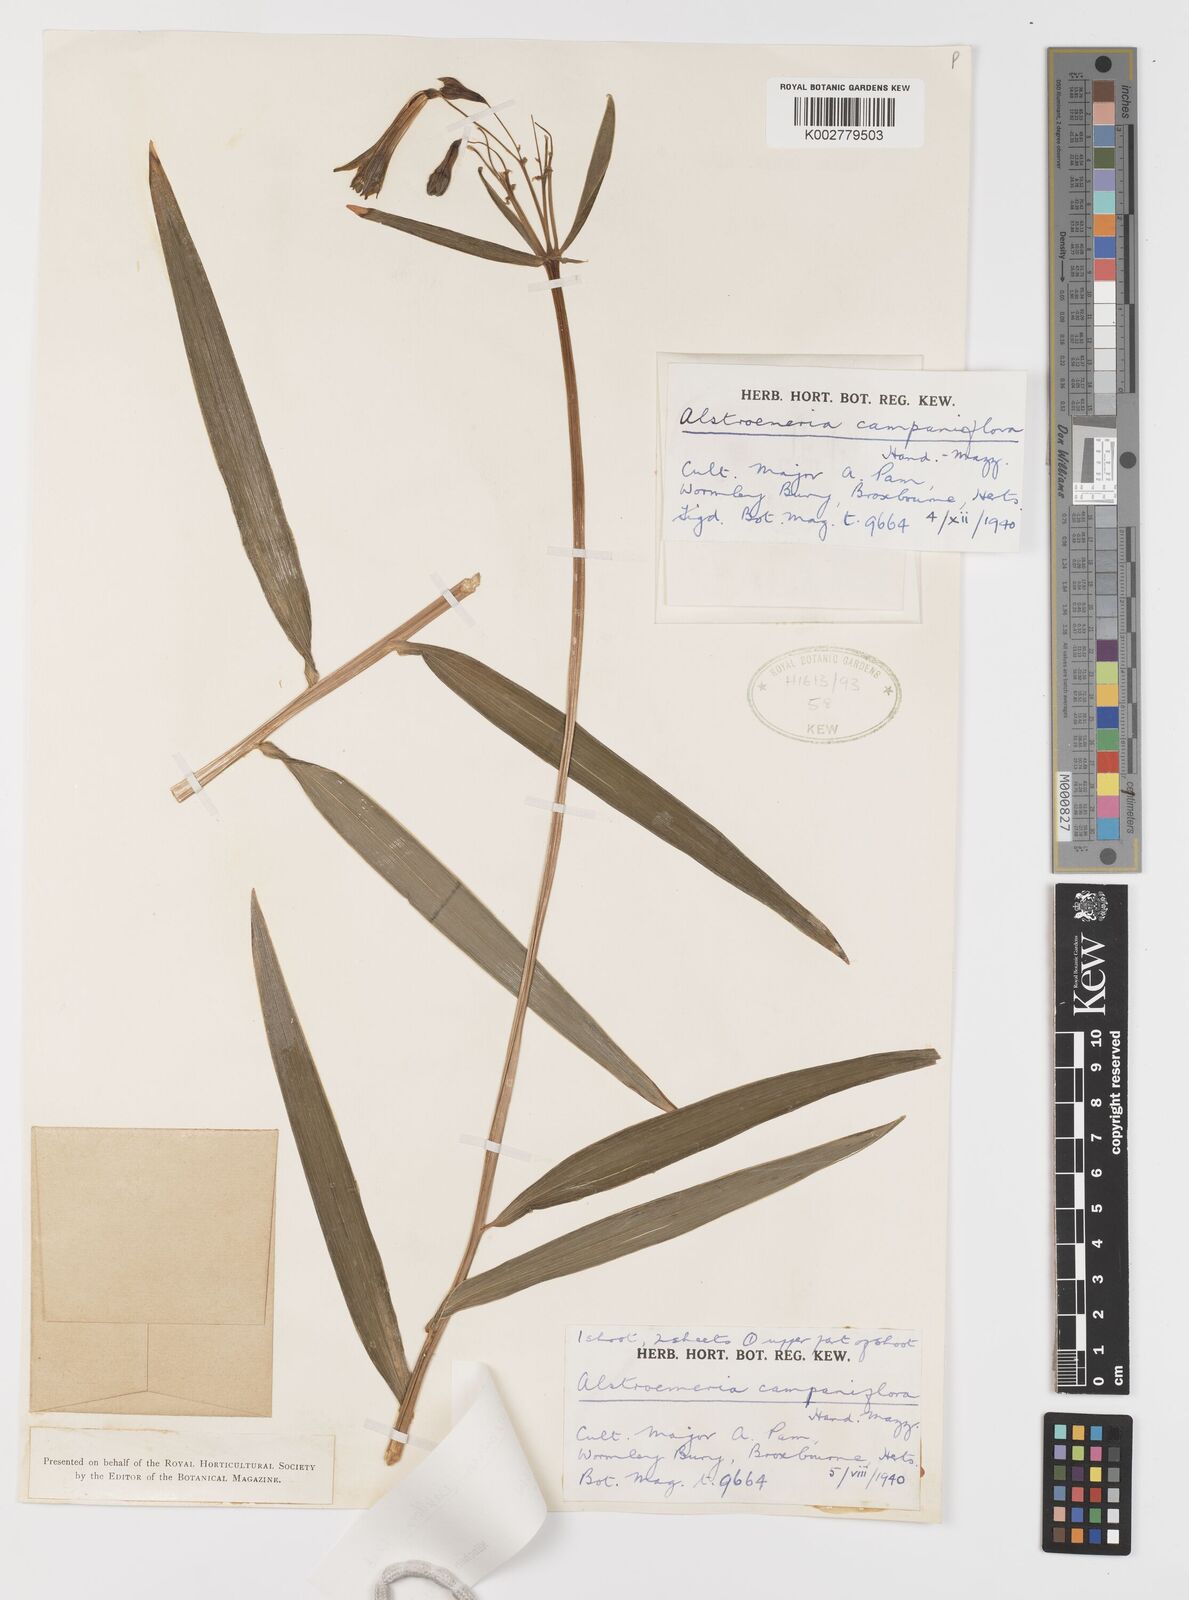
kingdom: Plantae
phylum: Tracheophyta
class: Liliopsida
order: Liliales
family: Alstroemeriaceae
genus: Alstroemeria
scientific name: Alstroemeria isabelleana
